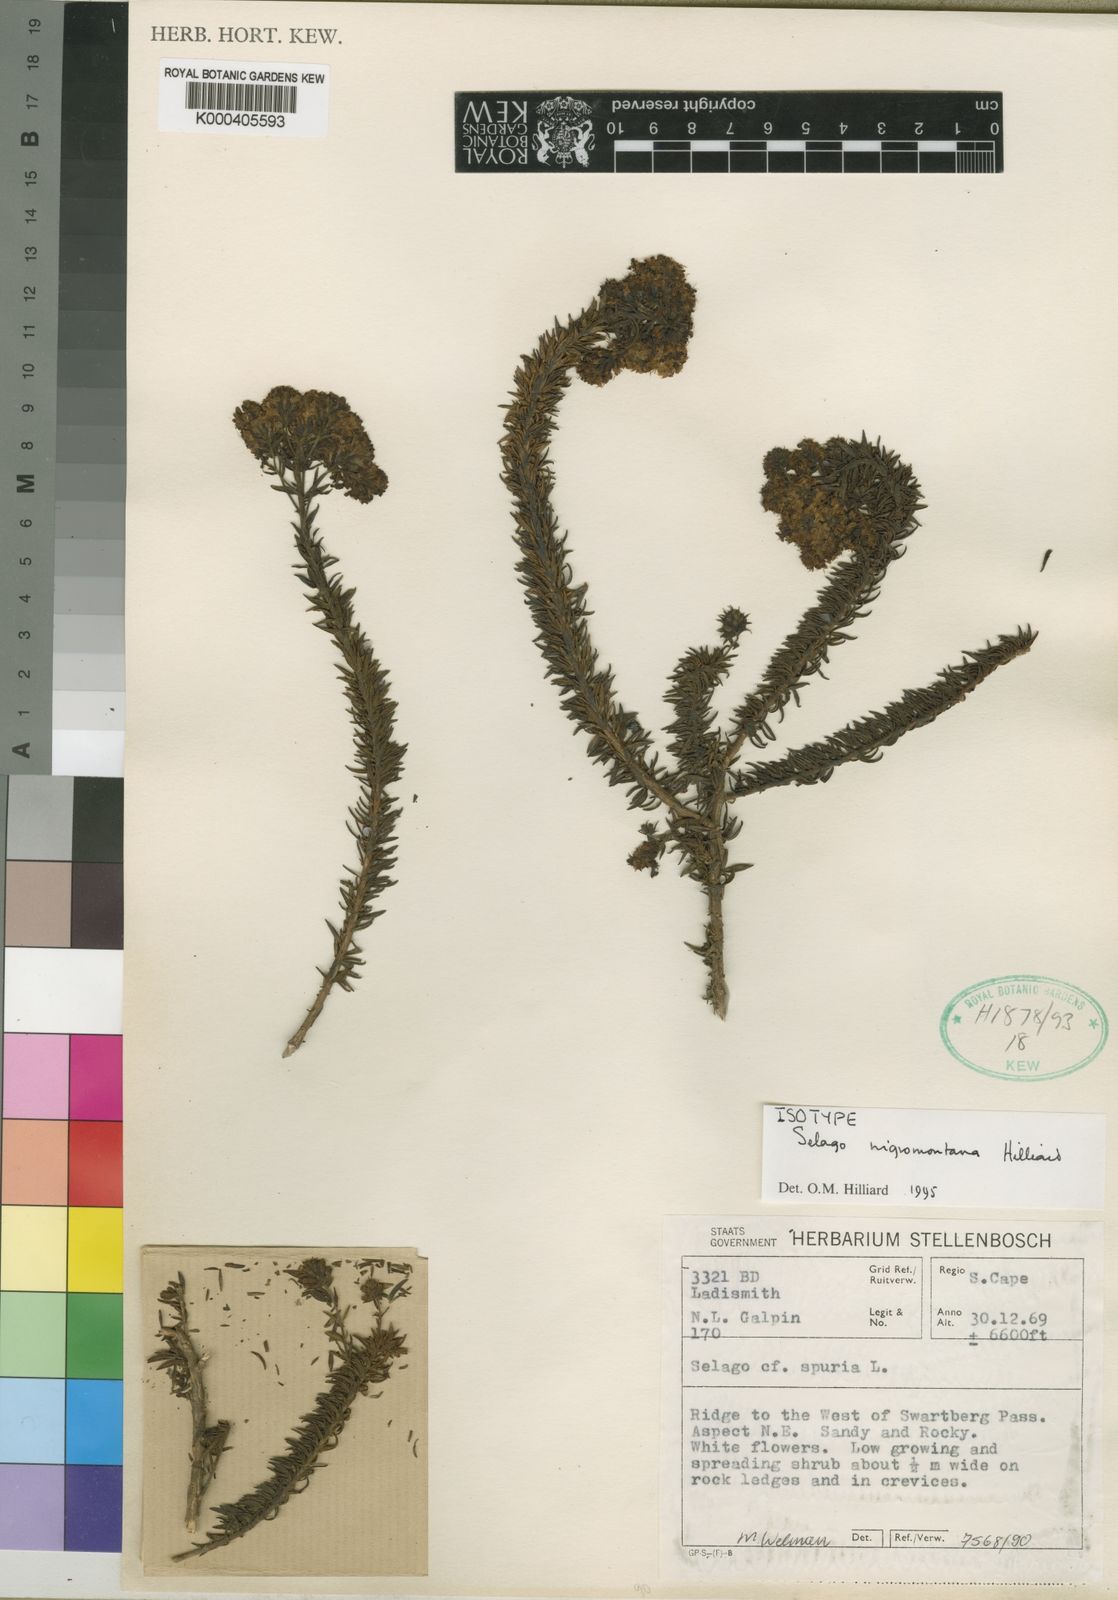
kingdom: Plantae
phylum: Tracheophyta
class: Magnoliopsida
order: Lamiales
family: Scrophulariaceae
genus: Selago
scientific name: Selago nigromontana
